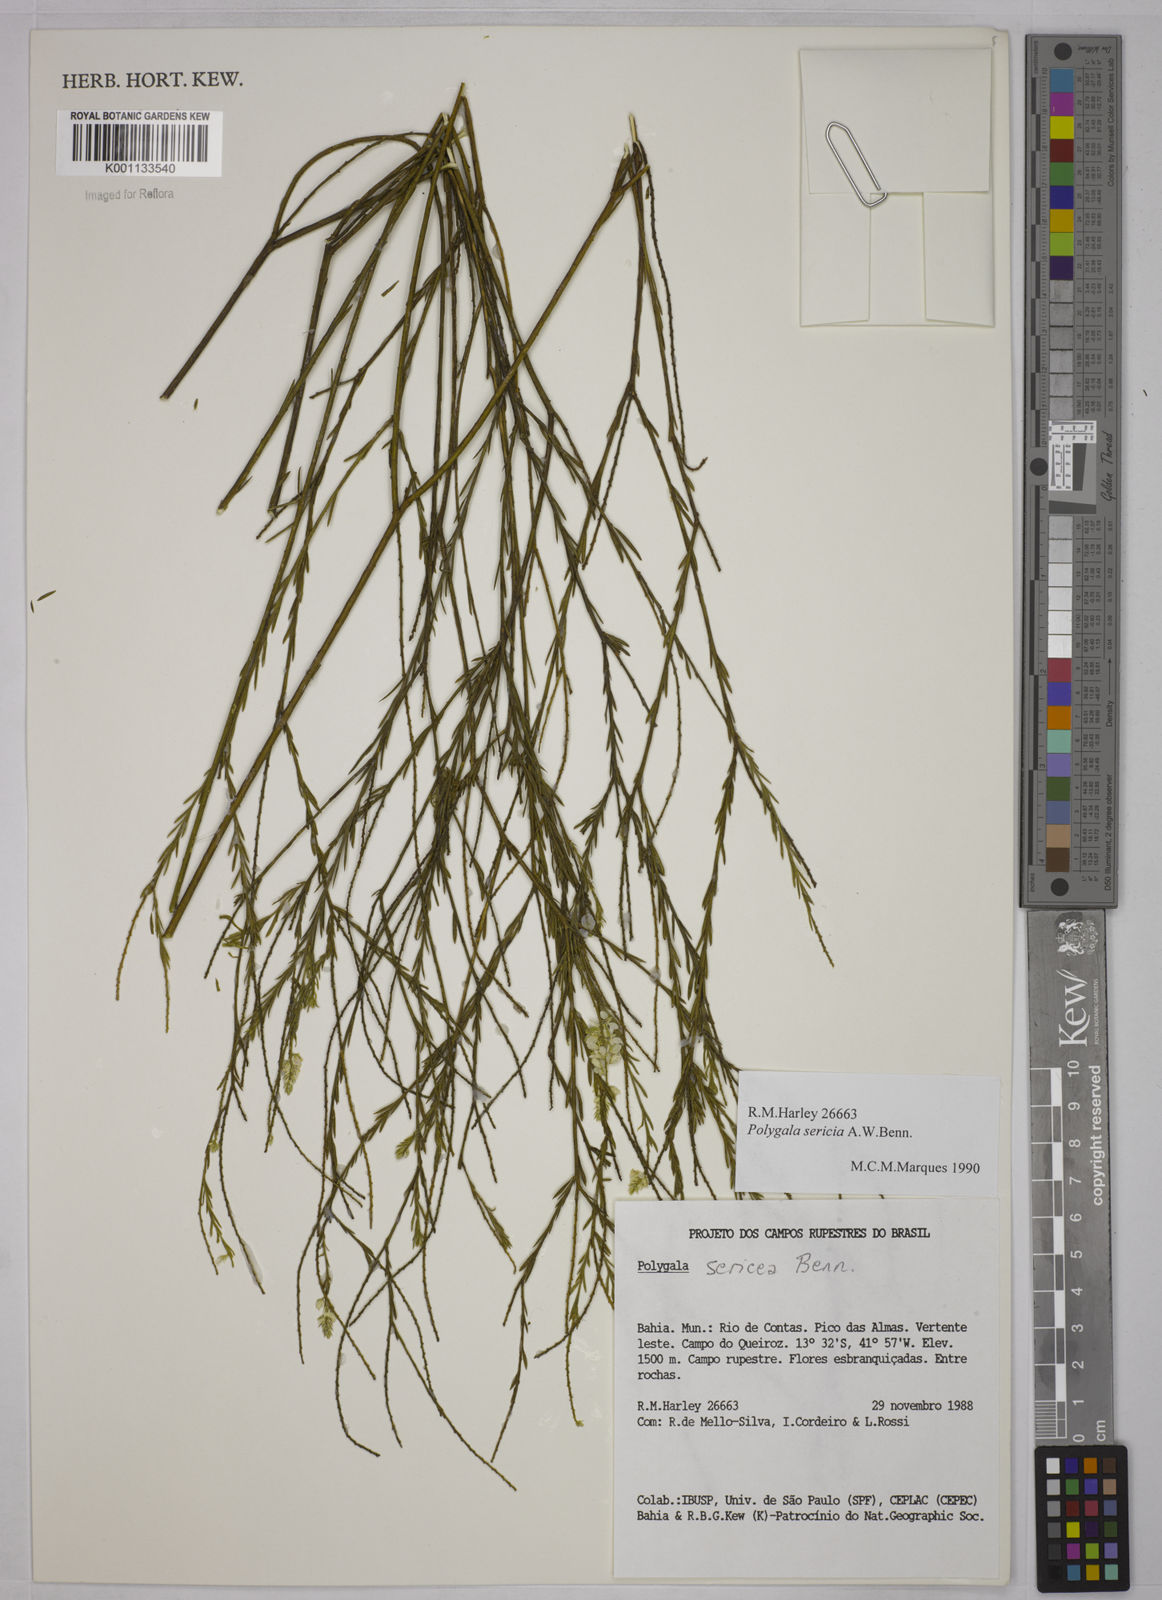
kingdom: Plantae
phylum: Tracheophyta
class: Magnoliopsida
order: Fabales
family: Polygalaceae
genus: Polygala
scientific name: Polygala sericea
